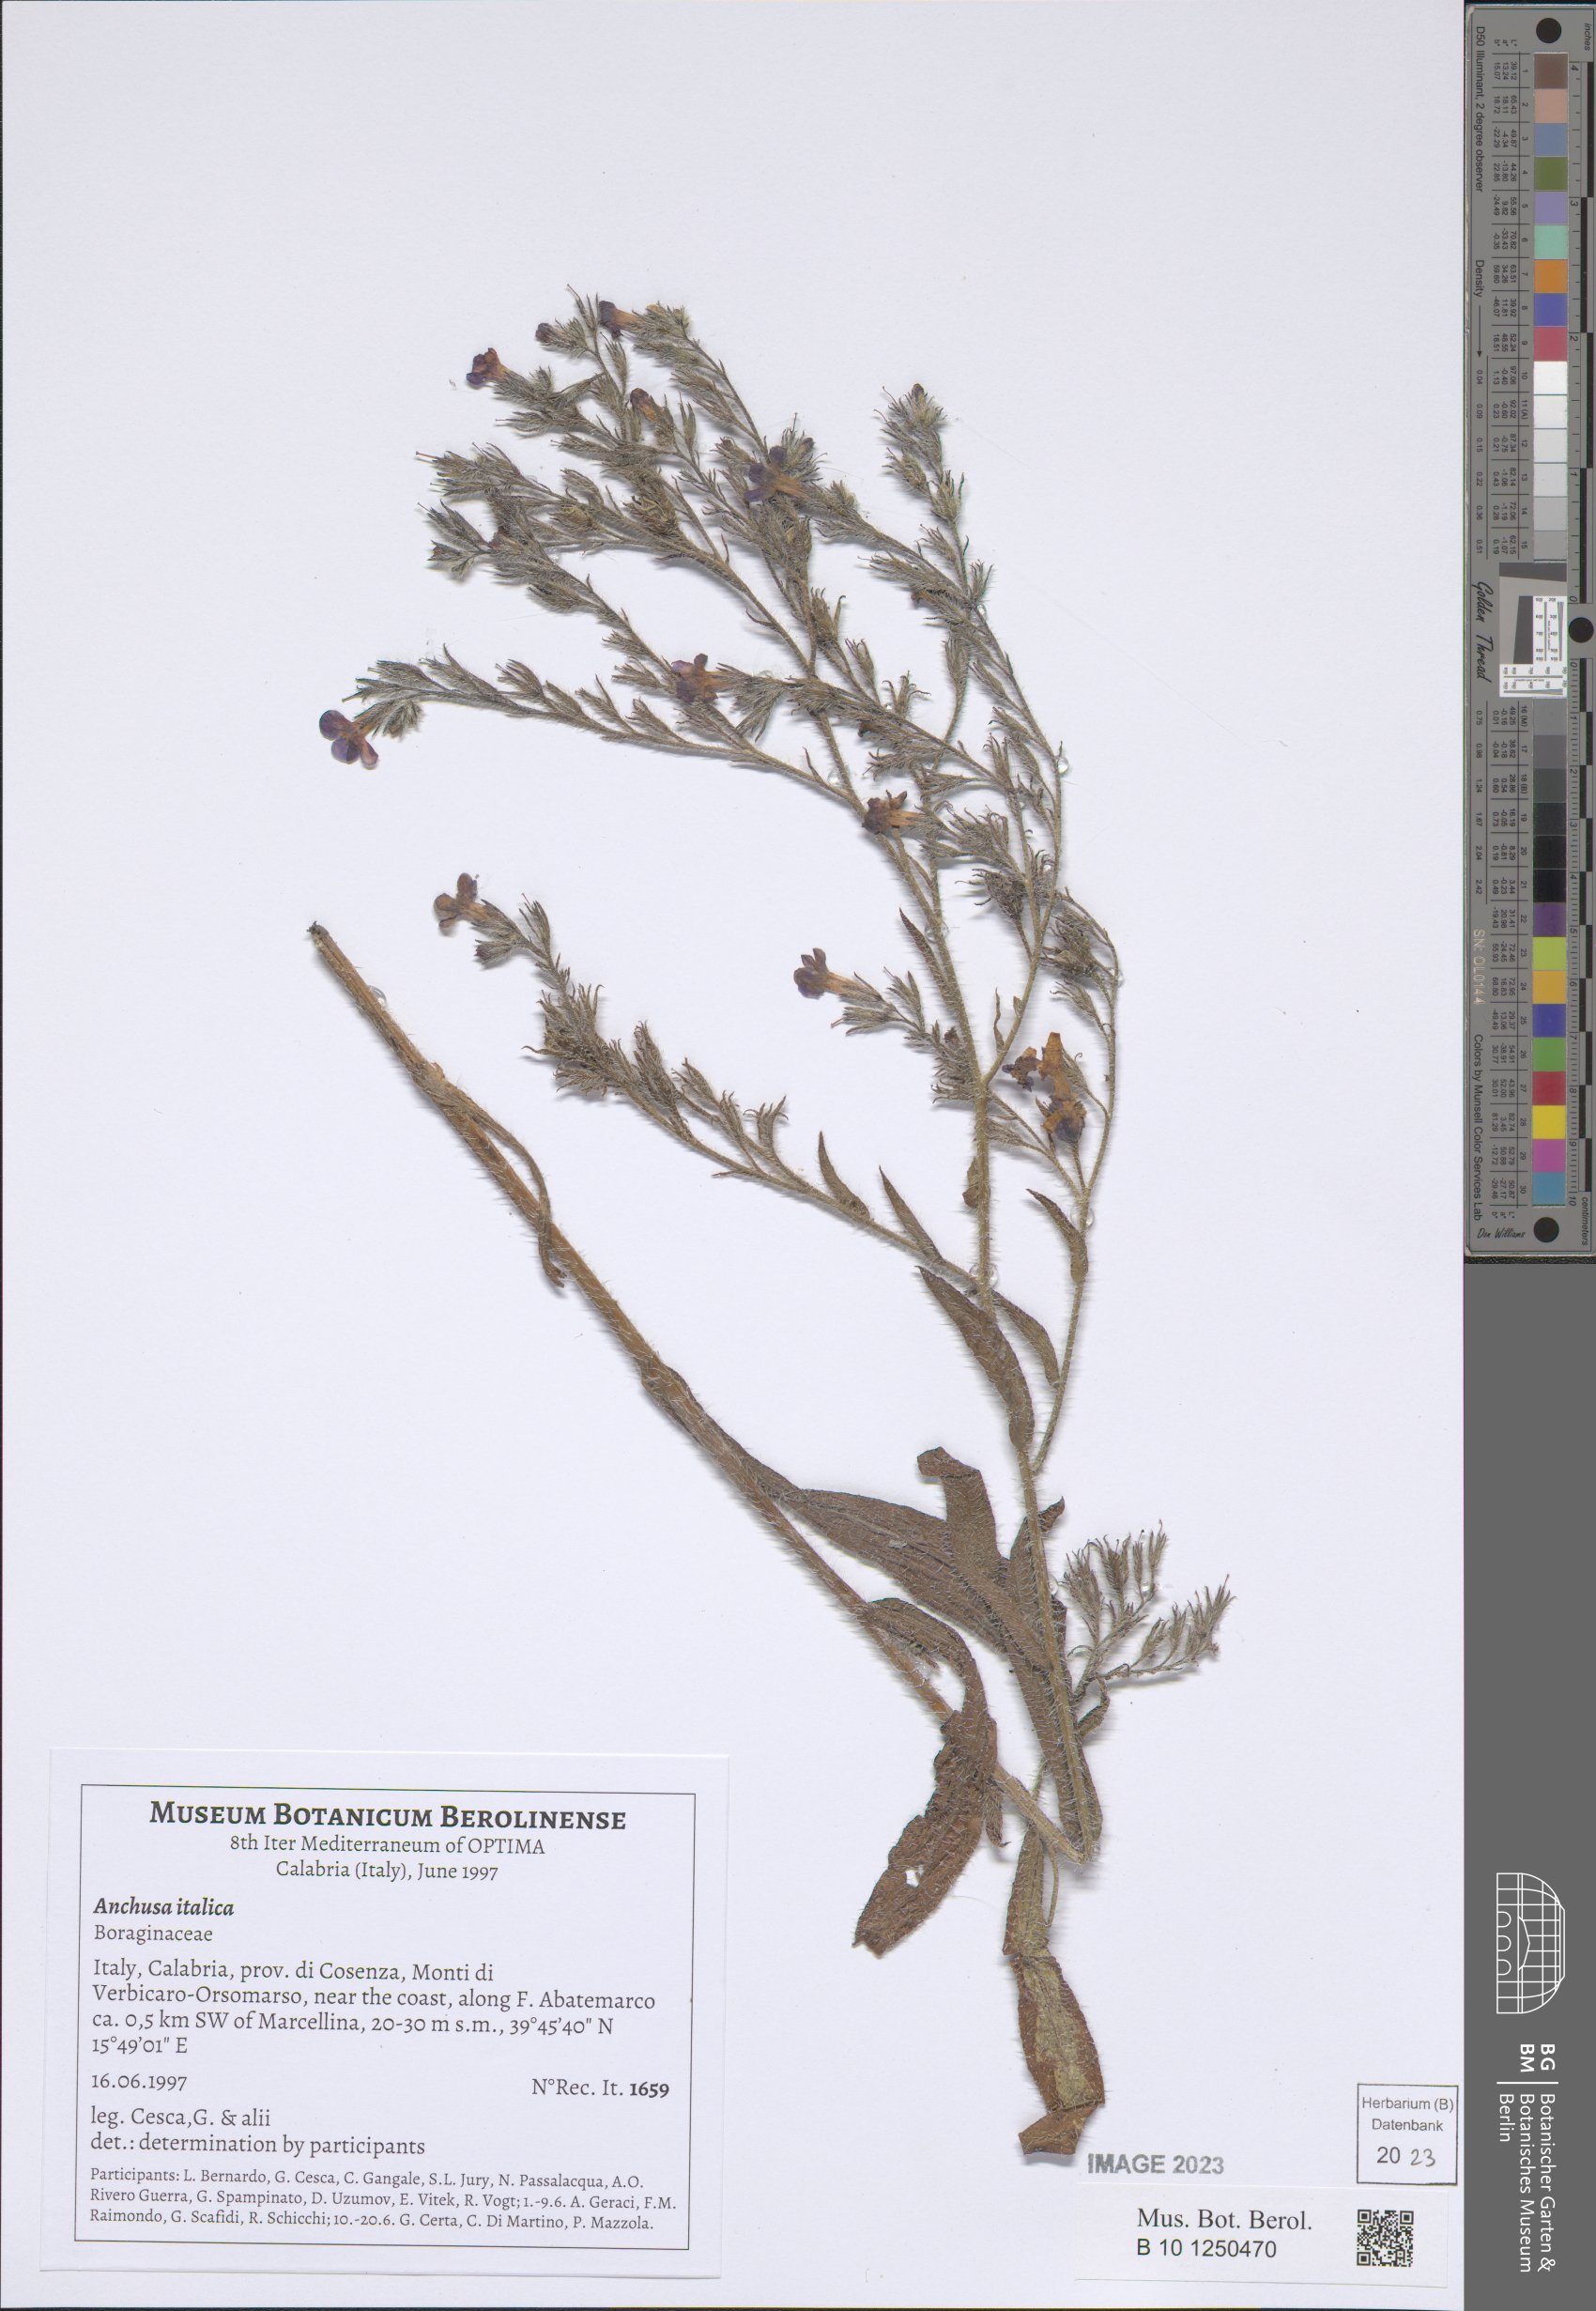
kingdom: Plantae
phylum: Tracheophyta
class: Magnoliopsida
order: Boraginales
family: Boraginaceae
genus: Anchusa
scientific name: Anchusa azurea
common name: Garden anchusa
